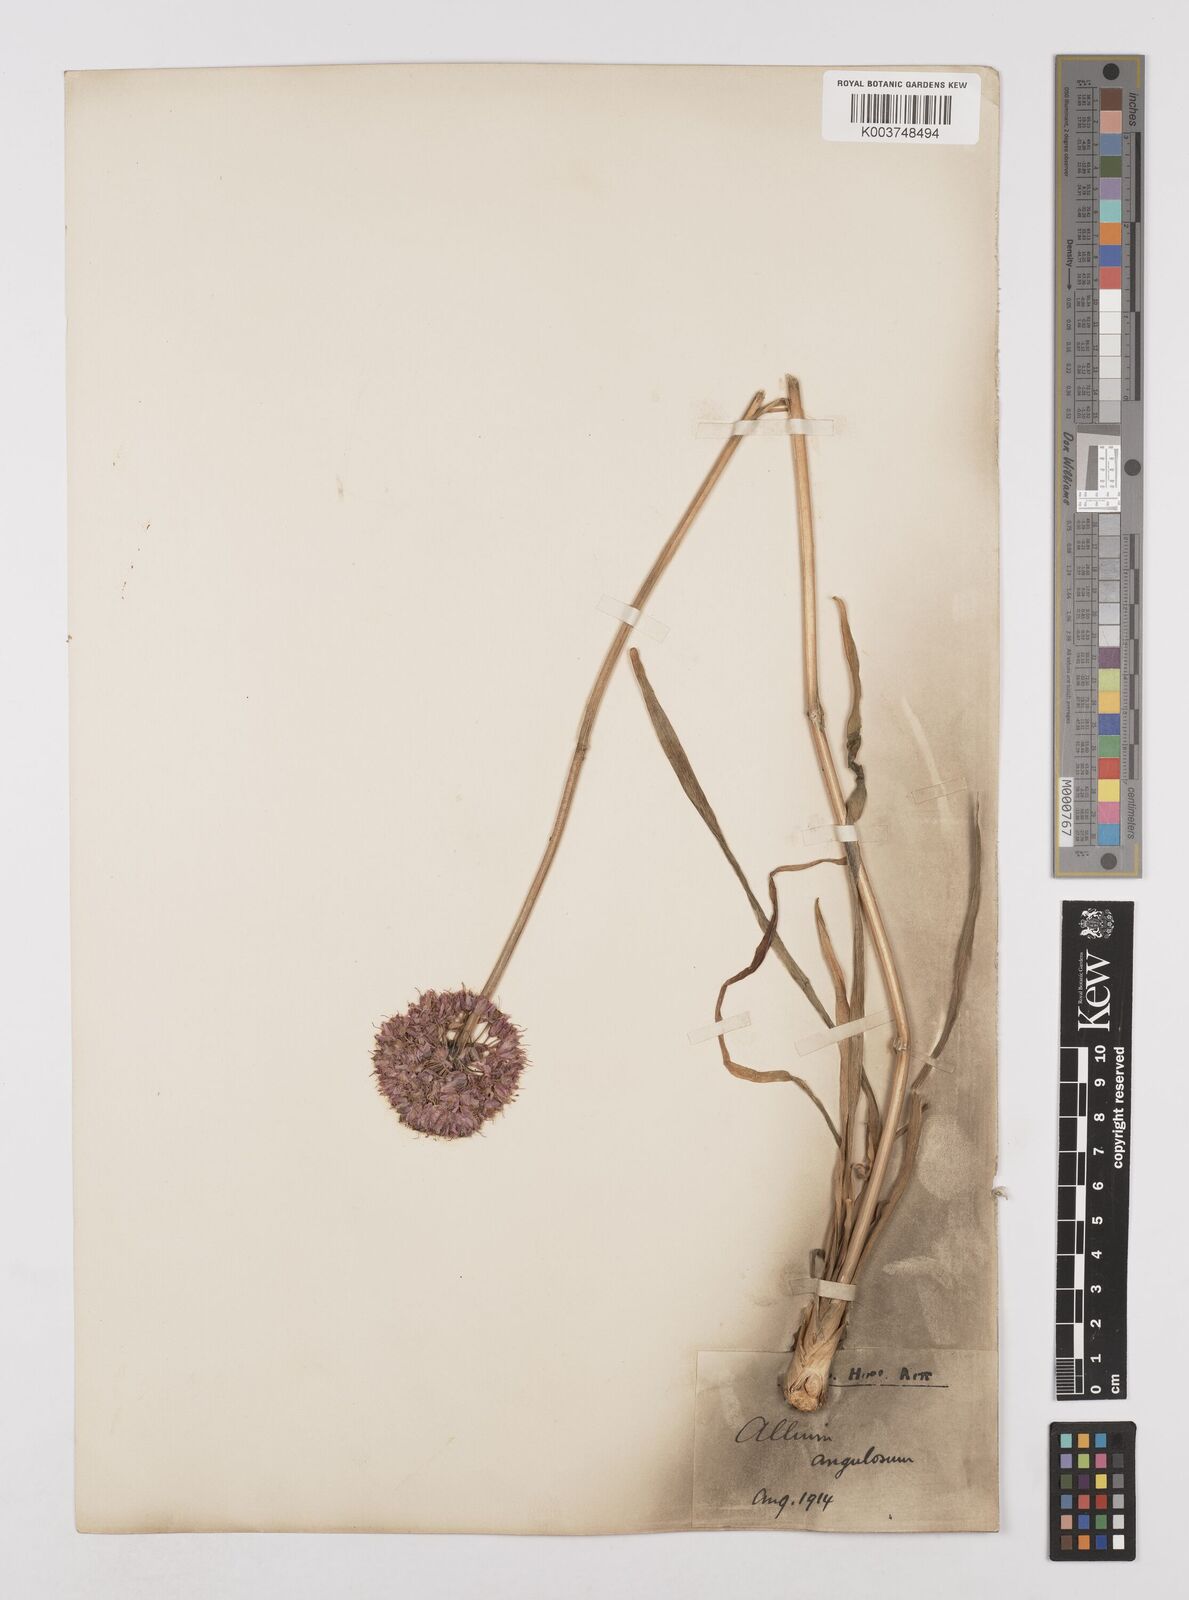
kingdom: Plantae
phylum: Tracheophyta
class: Liliopsida
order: Asparagales
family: Amaryllidaceae
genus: Allium
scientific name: Allium
